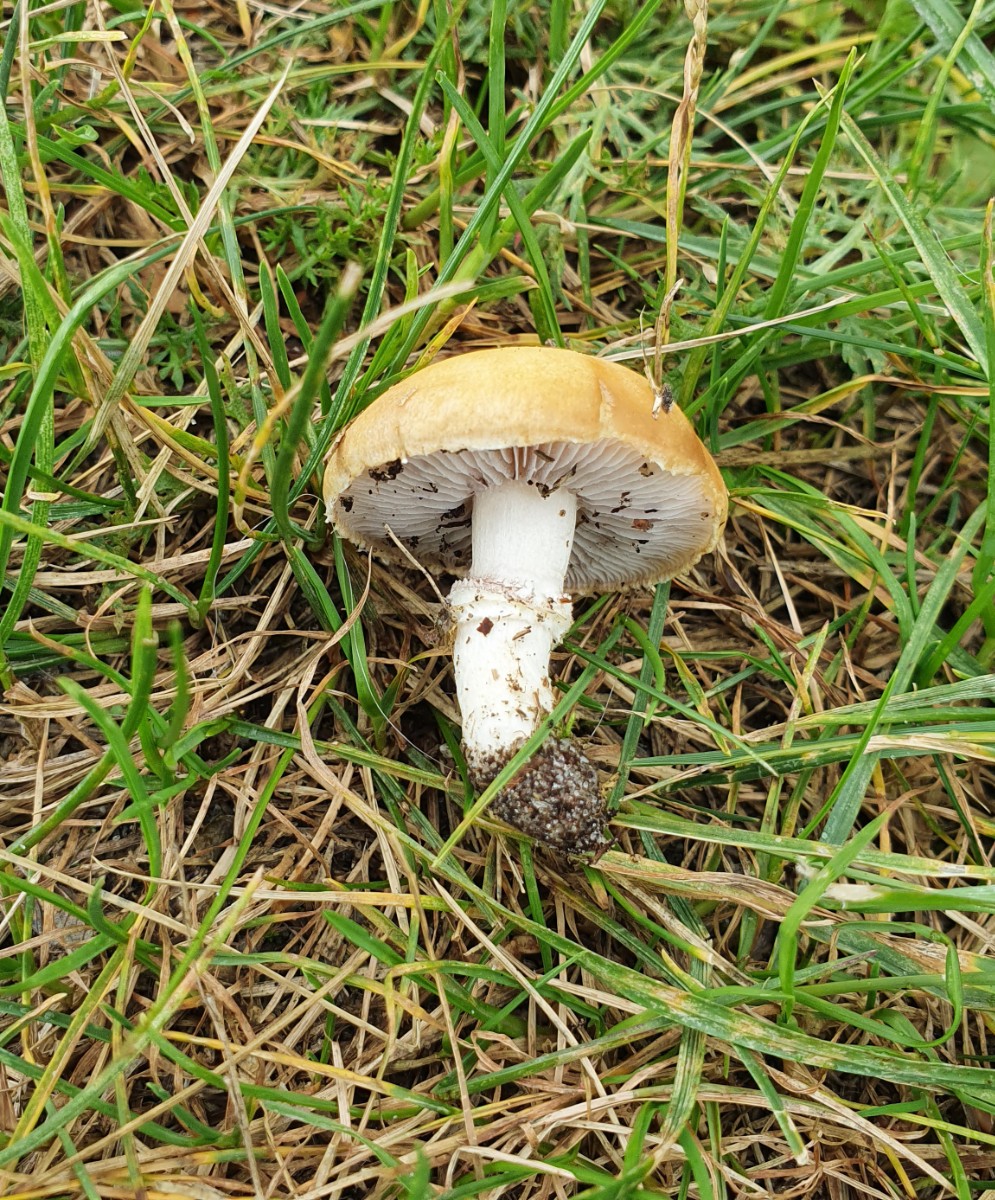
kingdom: Fungi
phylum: Basidiomycota
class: Agaricomycetes
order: Agaricales
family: Hymenogastraceae
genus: Psilocybe
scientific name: Psilocybe coronilla
